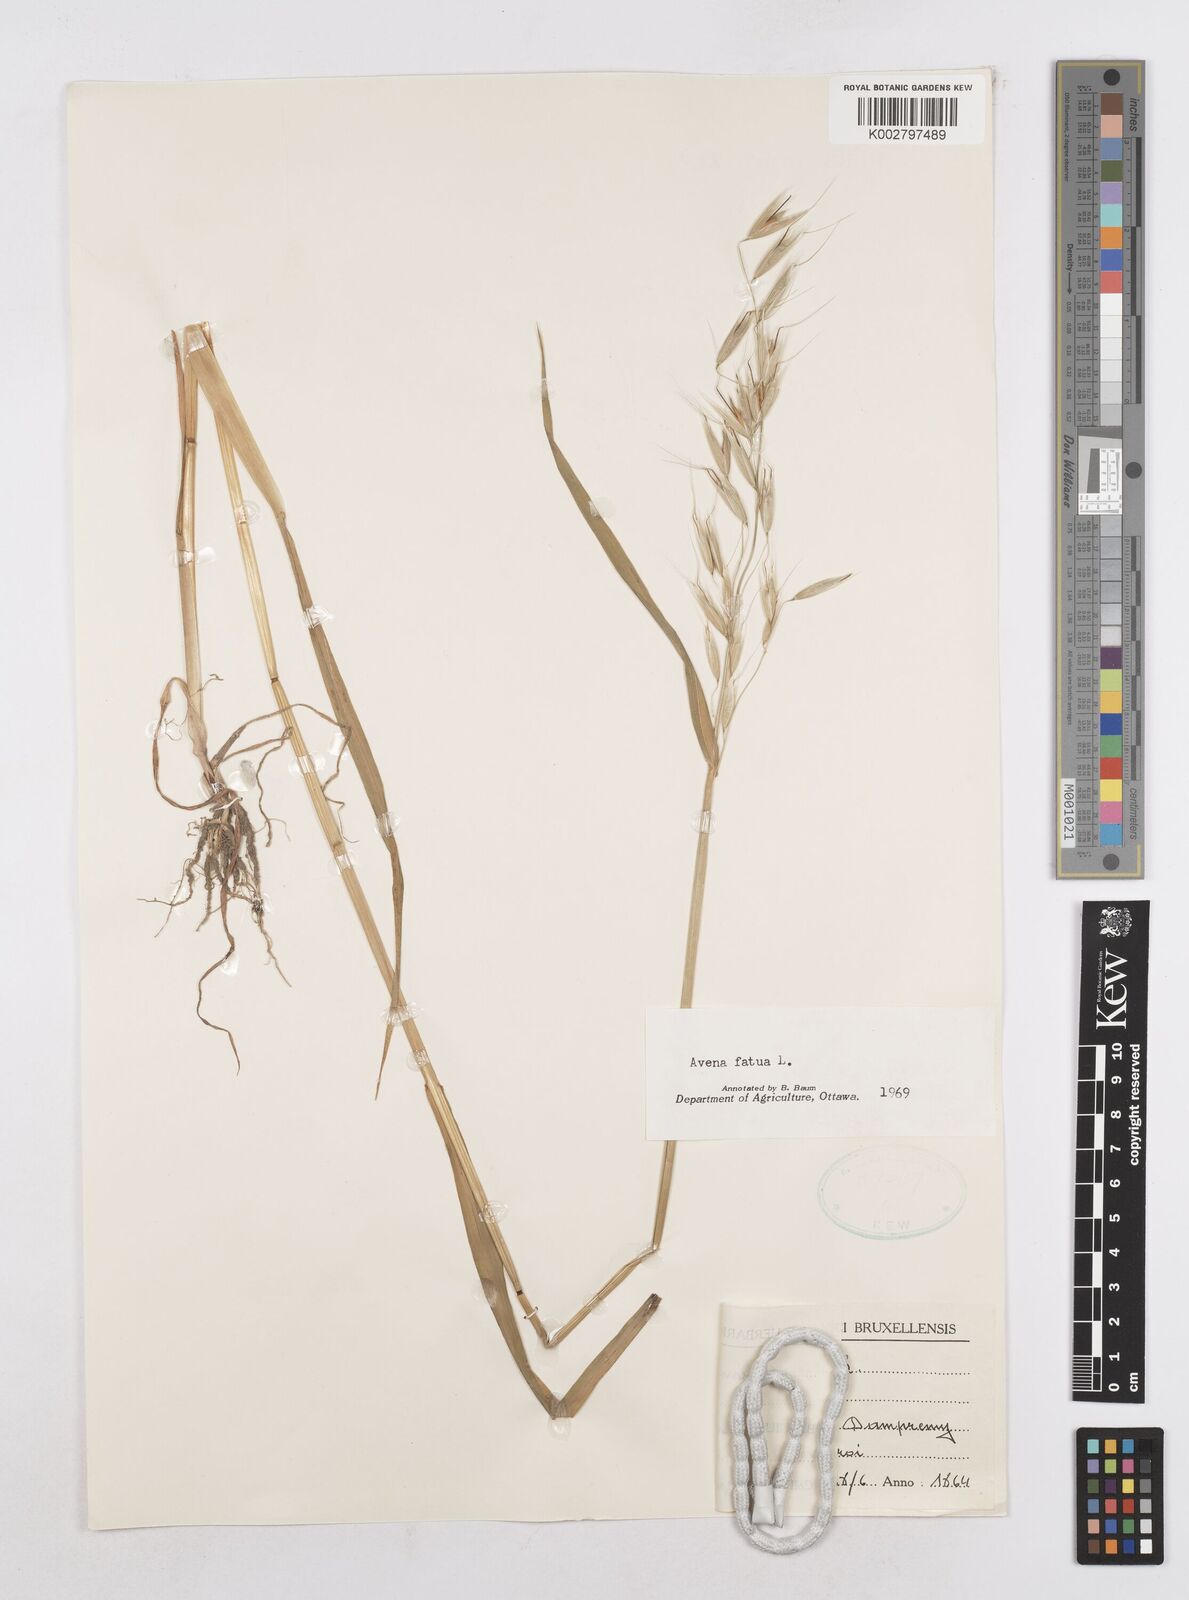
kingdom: Plantae
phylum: Tracheophyta
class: Liliopsida
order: Poales
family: Poaceae
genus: Avena
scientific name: Avena fatua
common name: Wild oat
